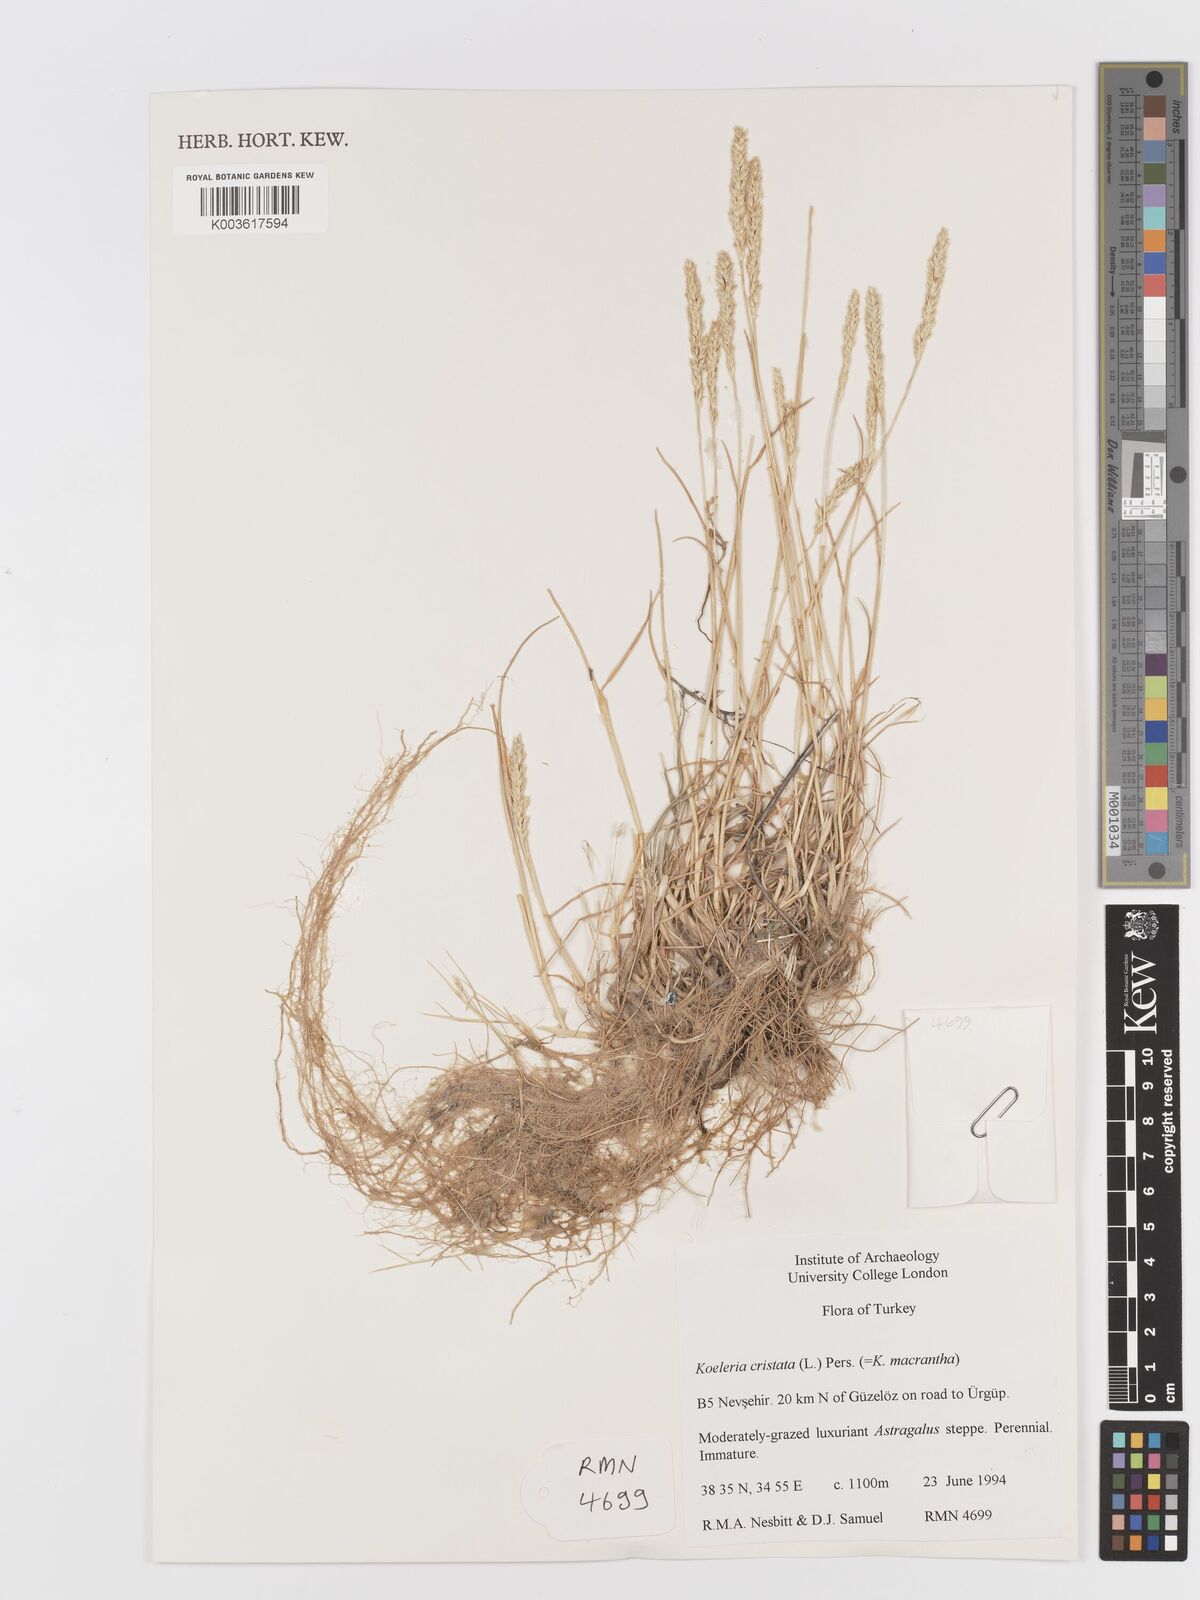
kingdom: Plantae
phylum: Tracheophyta
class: Liliopsida
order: Poales
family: Poaceae
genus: Koeleria
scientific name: Koeleria macrantha
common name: Crested hair-grass
